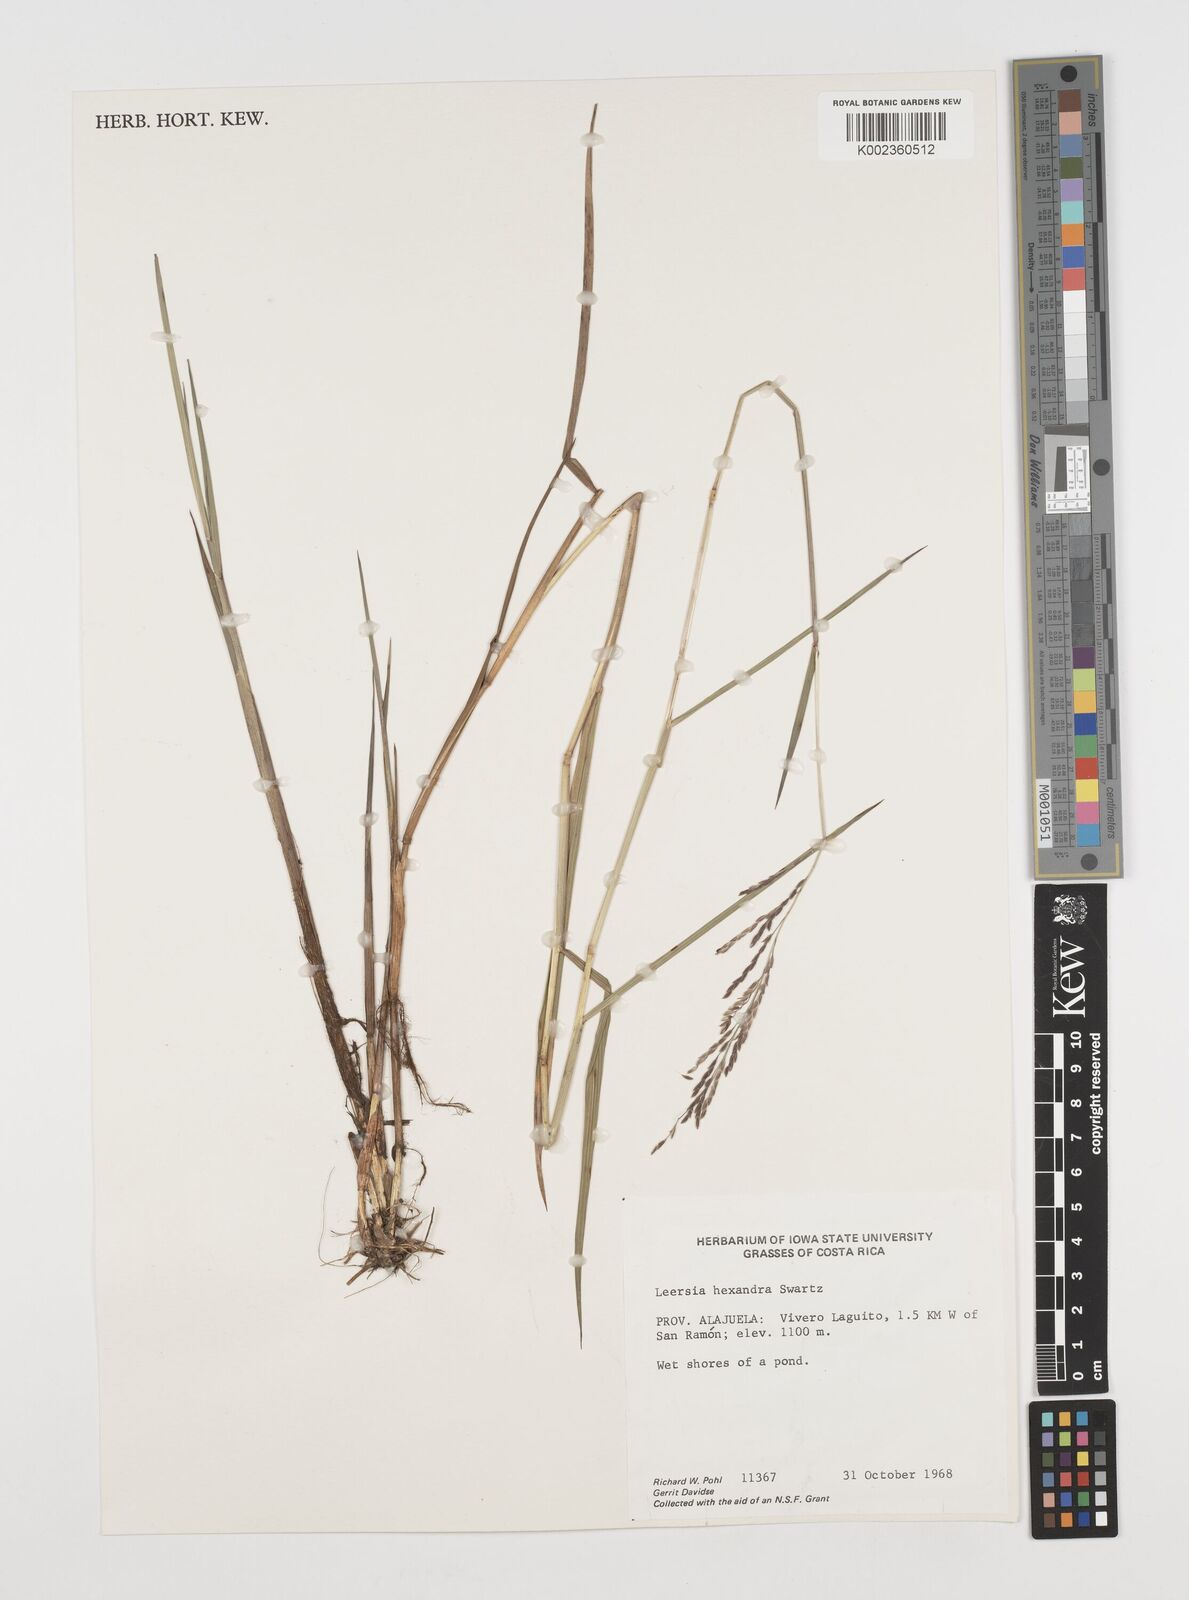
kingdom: Plantae
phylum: Tracheophyta
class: Liliopsida
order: Poales
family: Poaceae
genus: Leersia
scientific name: Leersia hexandra
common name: Southern cut grass
